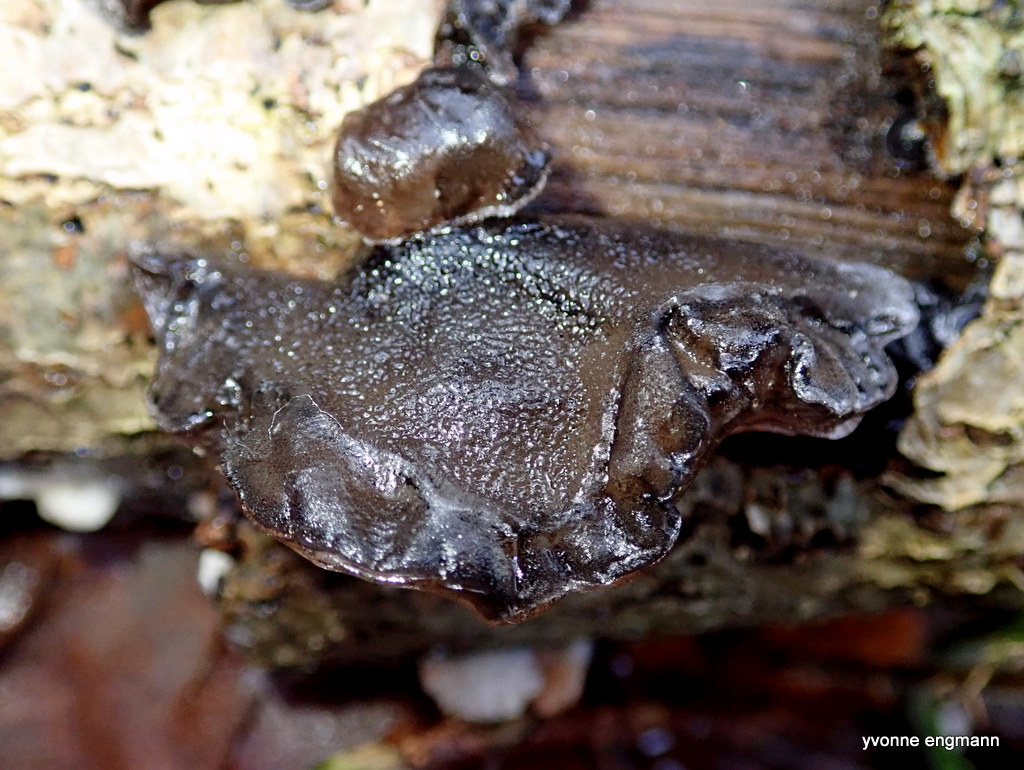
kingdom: Fungi
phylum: Basidiomycota
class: Agaricomycetes
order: Auriculariales
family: Auriculariaceae
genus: Exidia
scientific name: Exidia glandulosa
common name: ege-bævretop
